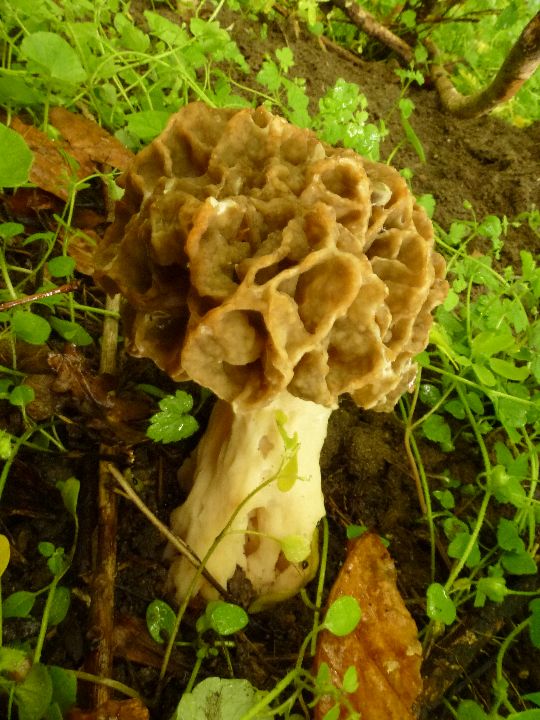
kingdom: Fungi
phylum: Ascomycota
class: Pezizomycetes
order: Pezizales
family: Morchellaceae
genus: Morchella
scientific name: Morchella esculenta
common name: spiselig morkel
